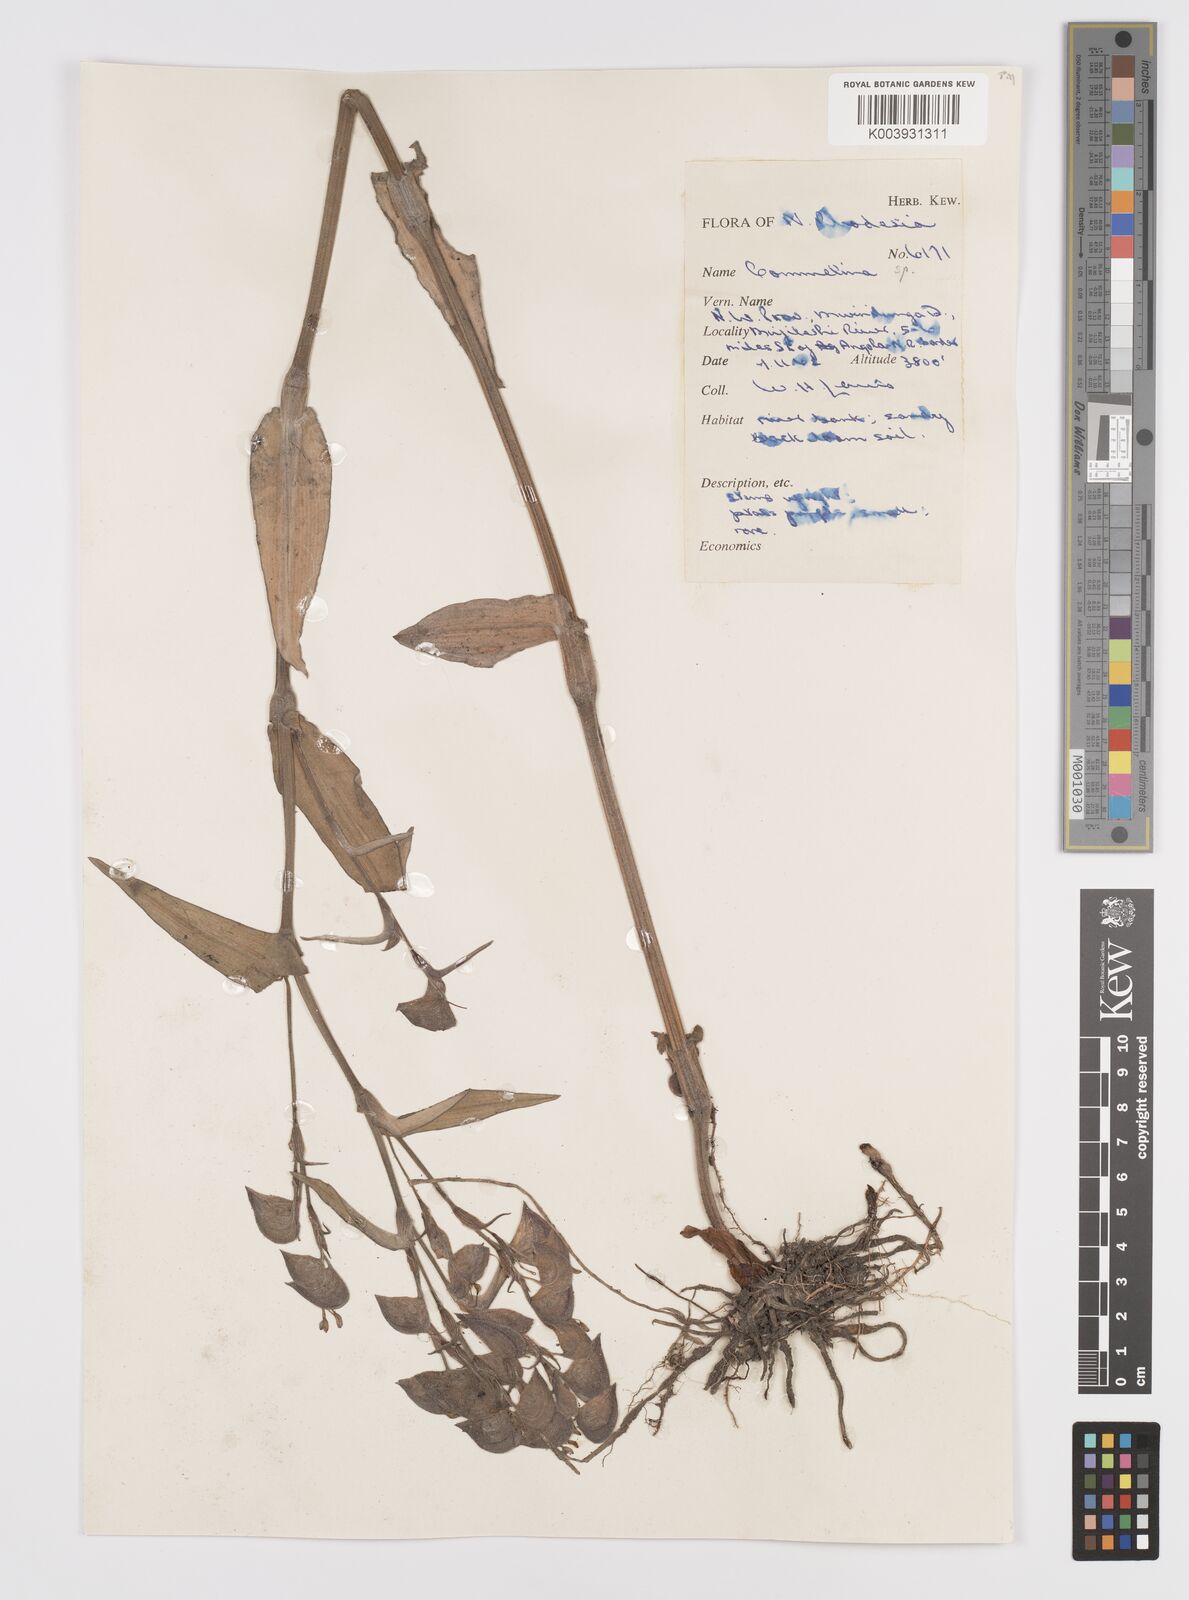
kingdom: Plantae
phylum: Tracheophyta
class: Liliopsida
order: Commelinales
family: Commelinaceae
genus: Commelina
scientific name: Commelina velutina
